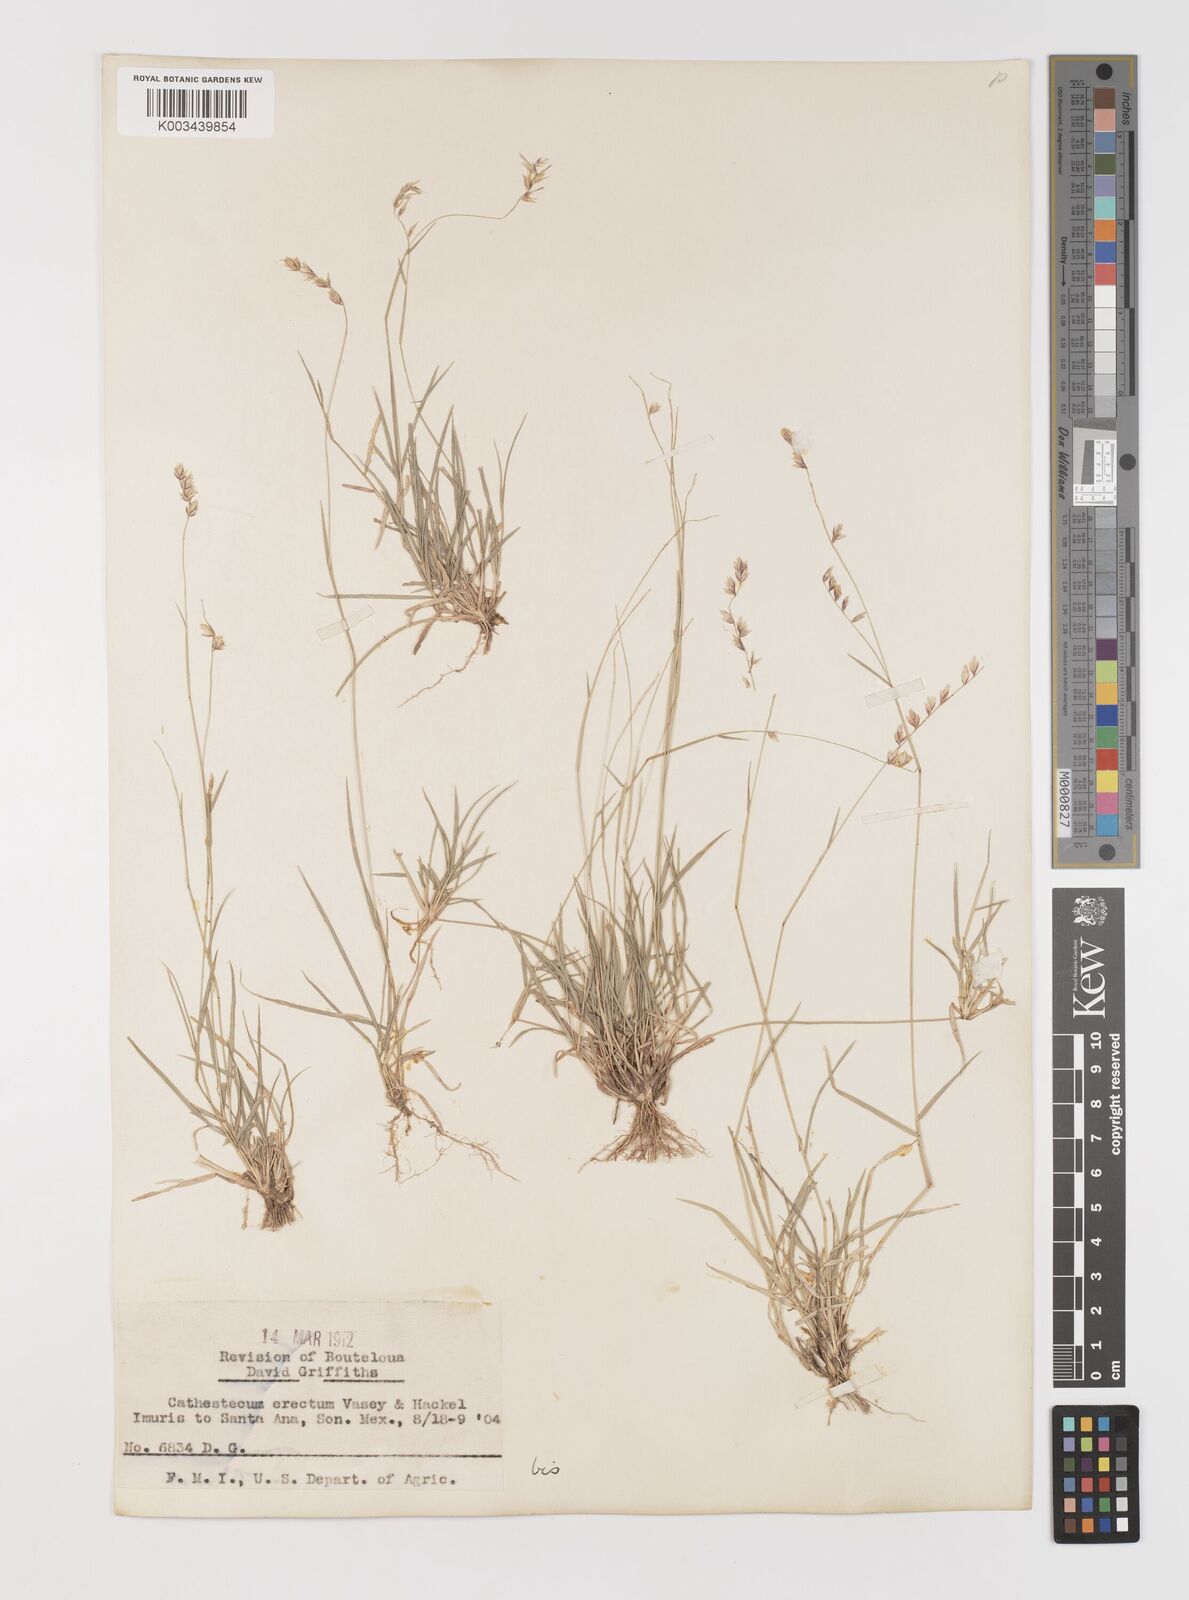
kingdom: Plantae
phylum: Tracheophyta
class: Liliopsida
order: Poales
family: Poaceae
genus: Bouteloua
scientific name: Bouteloua erecta
